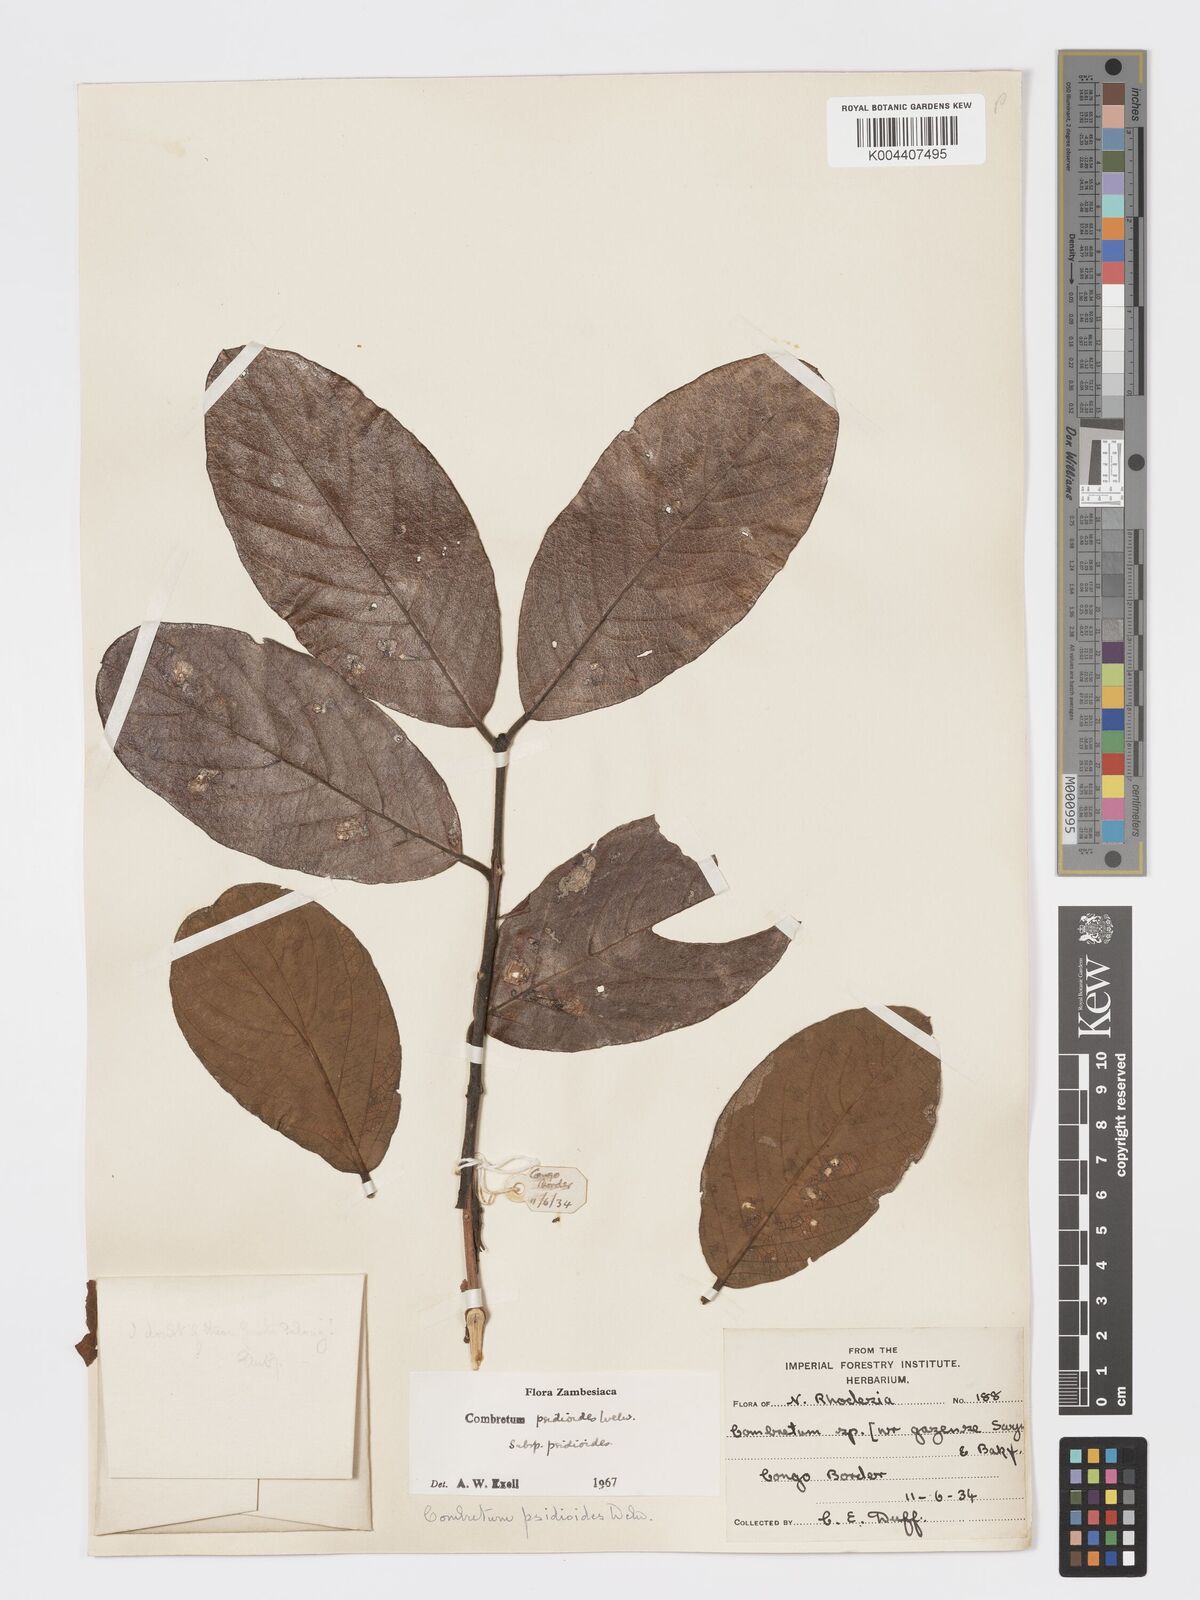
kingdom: Plantae
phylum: Tracheophyta
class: Magnoliopsida
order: Myrtales
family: Combretaceae
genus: Combretum
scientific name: Combretum psidioides
